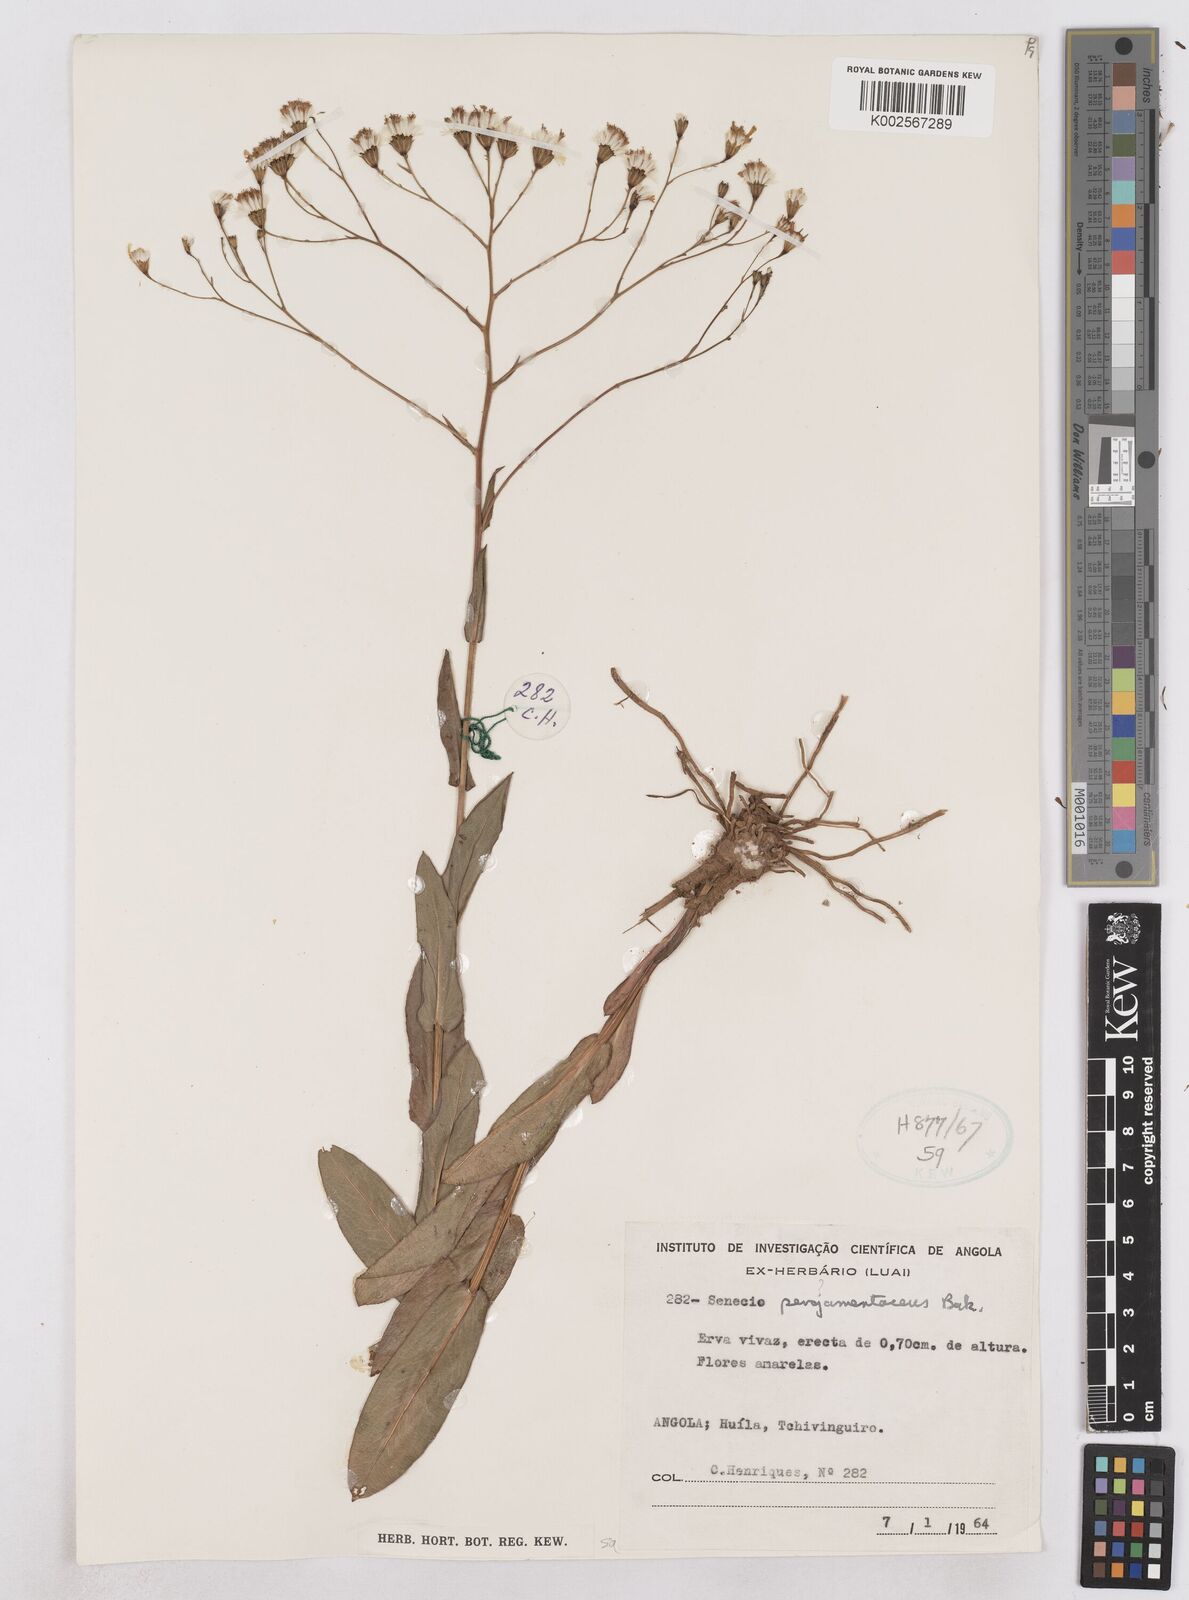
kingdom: Plantae
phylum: Tracheophyta
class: Magnoliopsida
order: Asterales
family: Asteraceae
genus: Senecio
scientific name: Senecio latifolius
